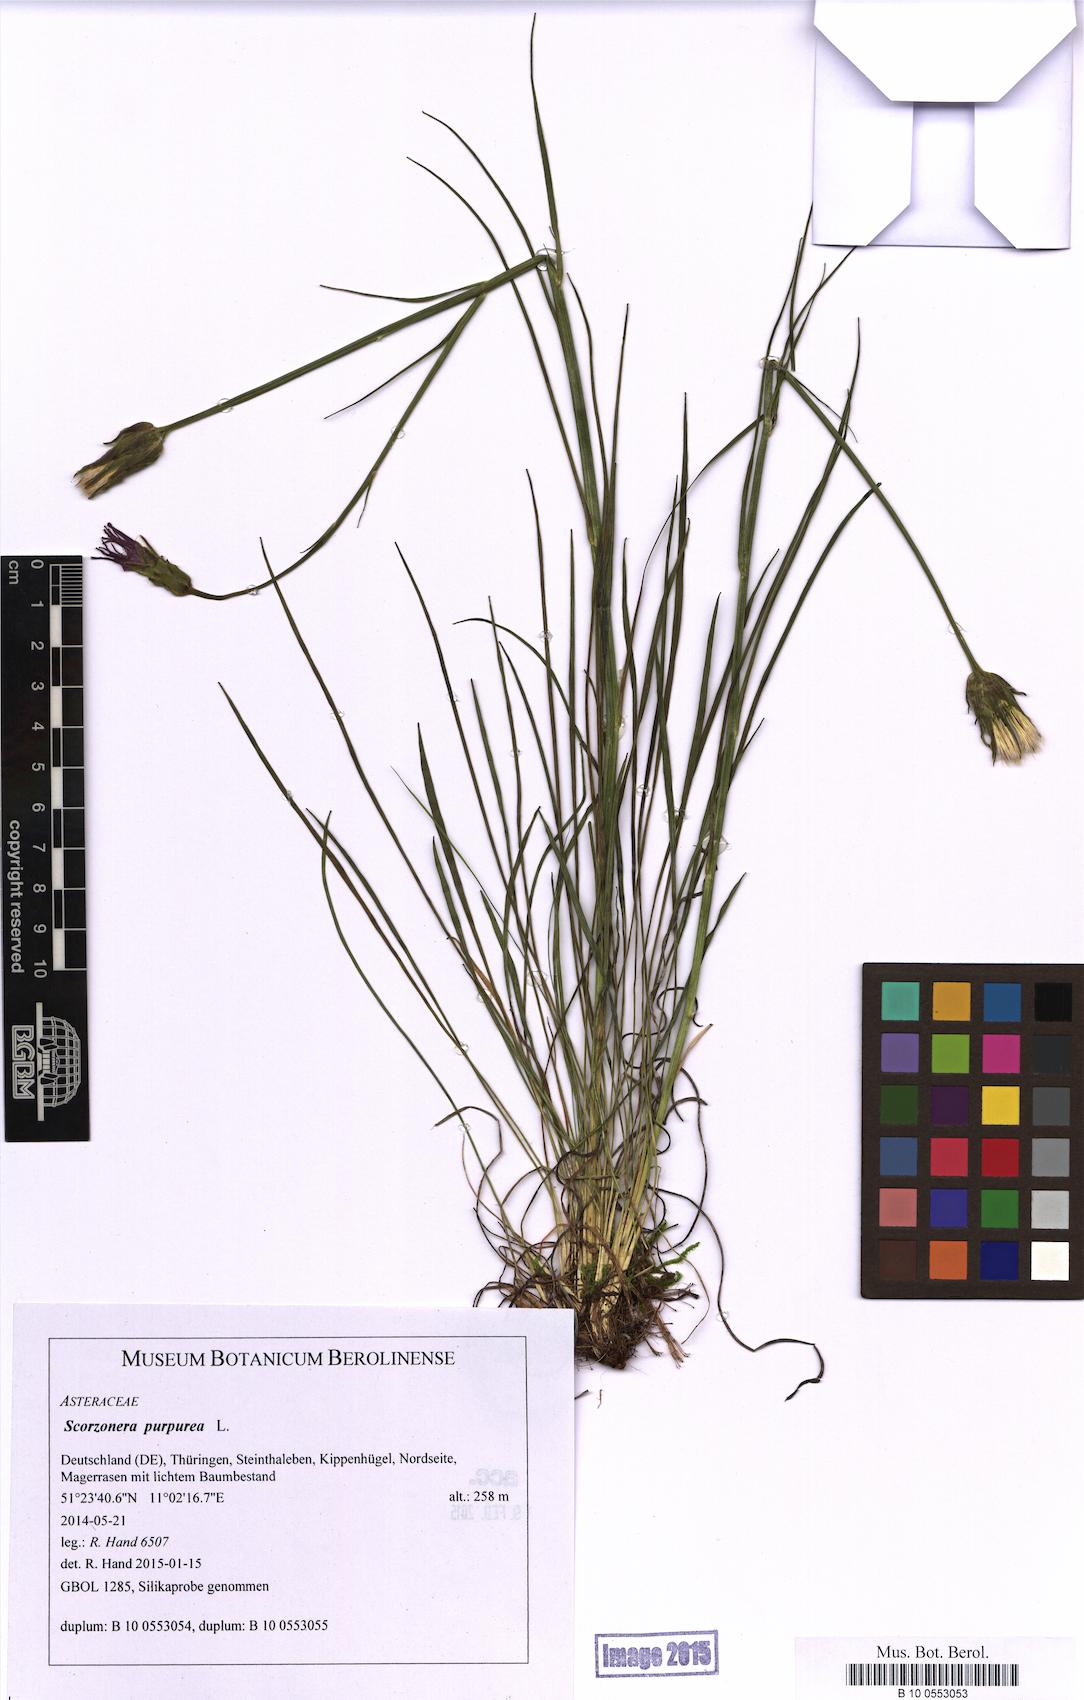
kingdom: Plantae
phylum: Tracheophyta
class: Magnoliopsida
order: Asterales
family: Asteraceae
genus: Scorzonera
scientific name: Scorzonera purpurea
